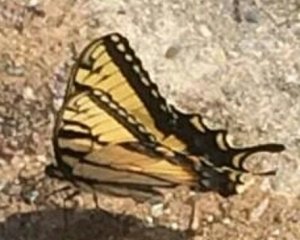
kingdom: Animalia
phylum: Arthropoda
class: Insecta
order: Lepidoptera
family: Papilionidae
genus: Pterourus
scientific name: Pterourus glaucus
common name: Eastern Tiger Swallowtail
